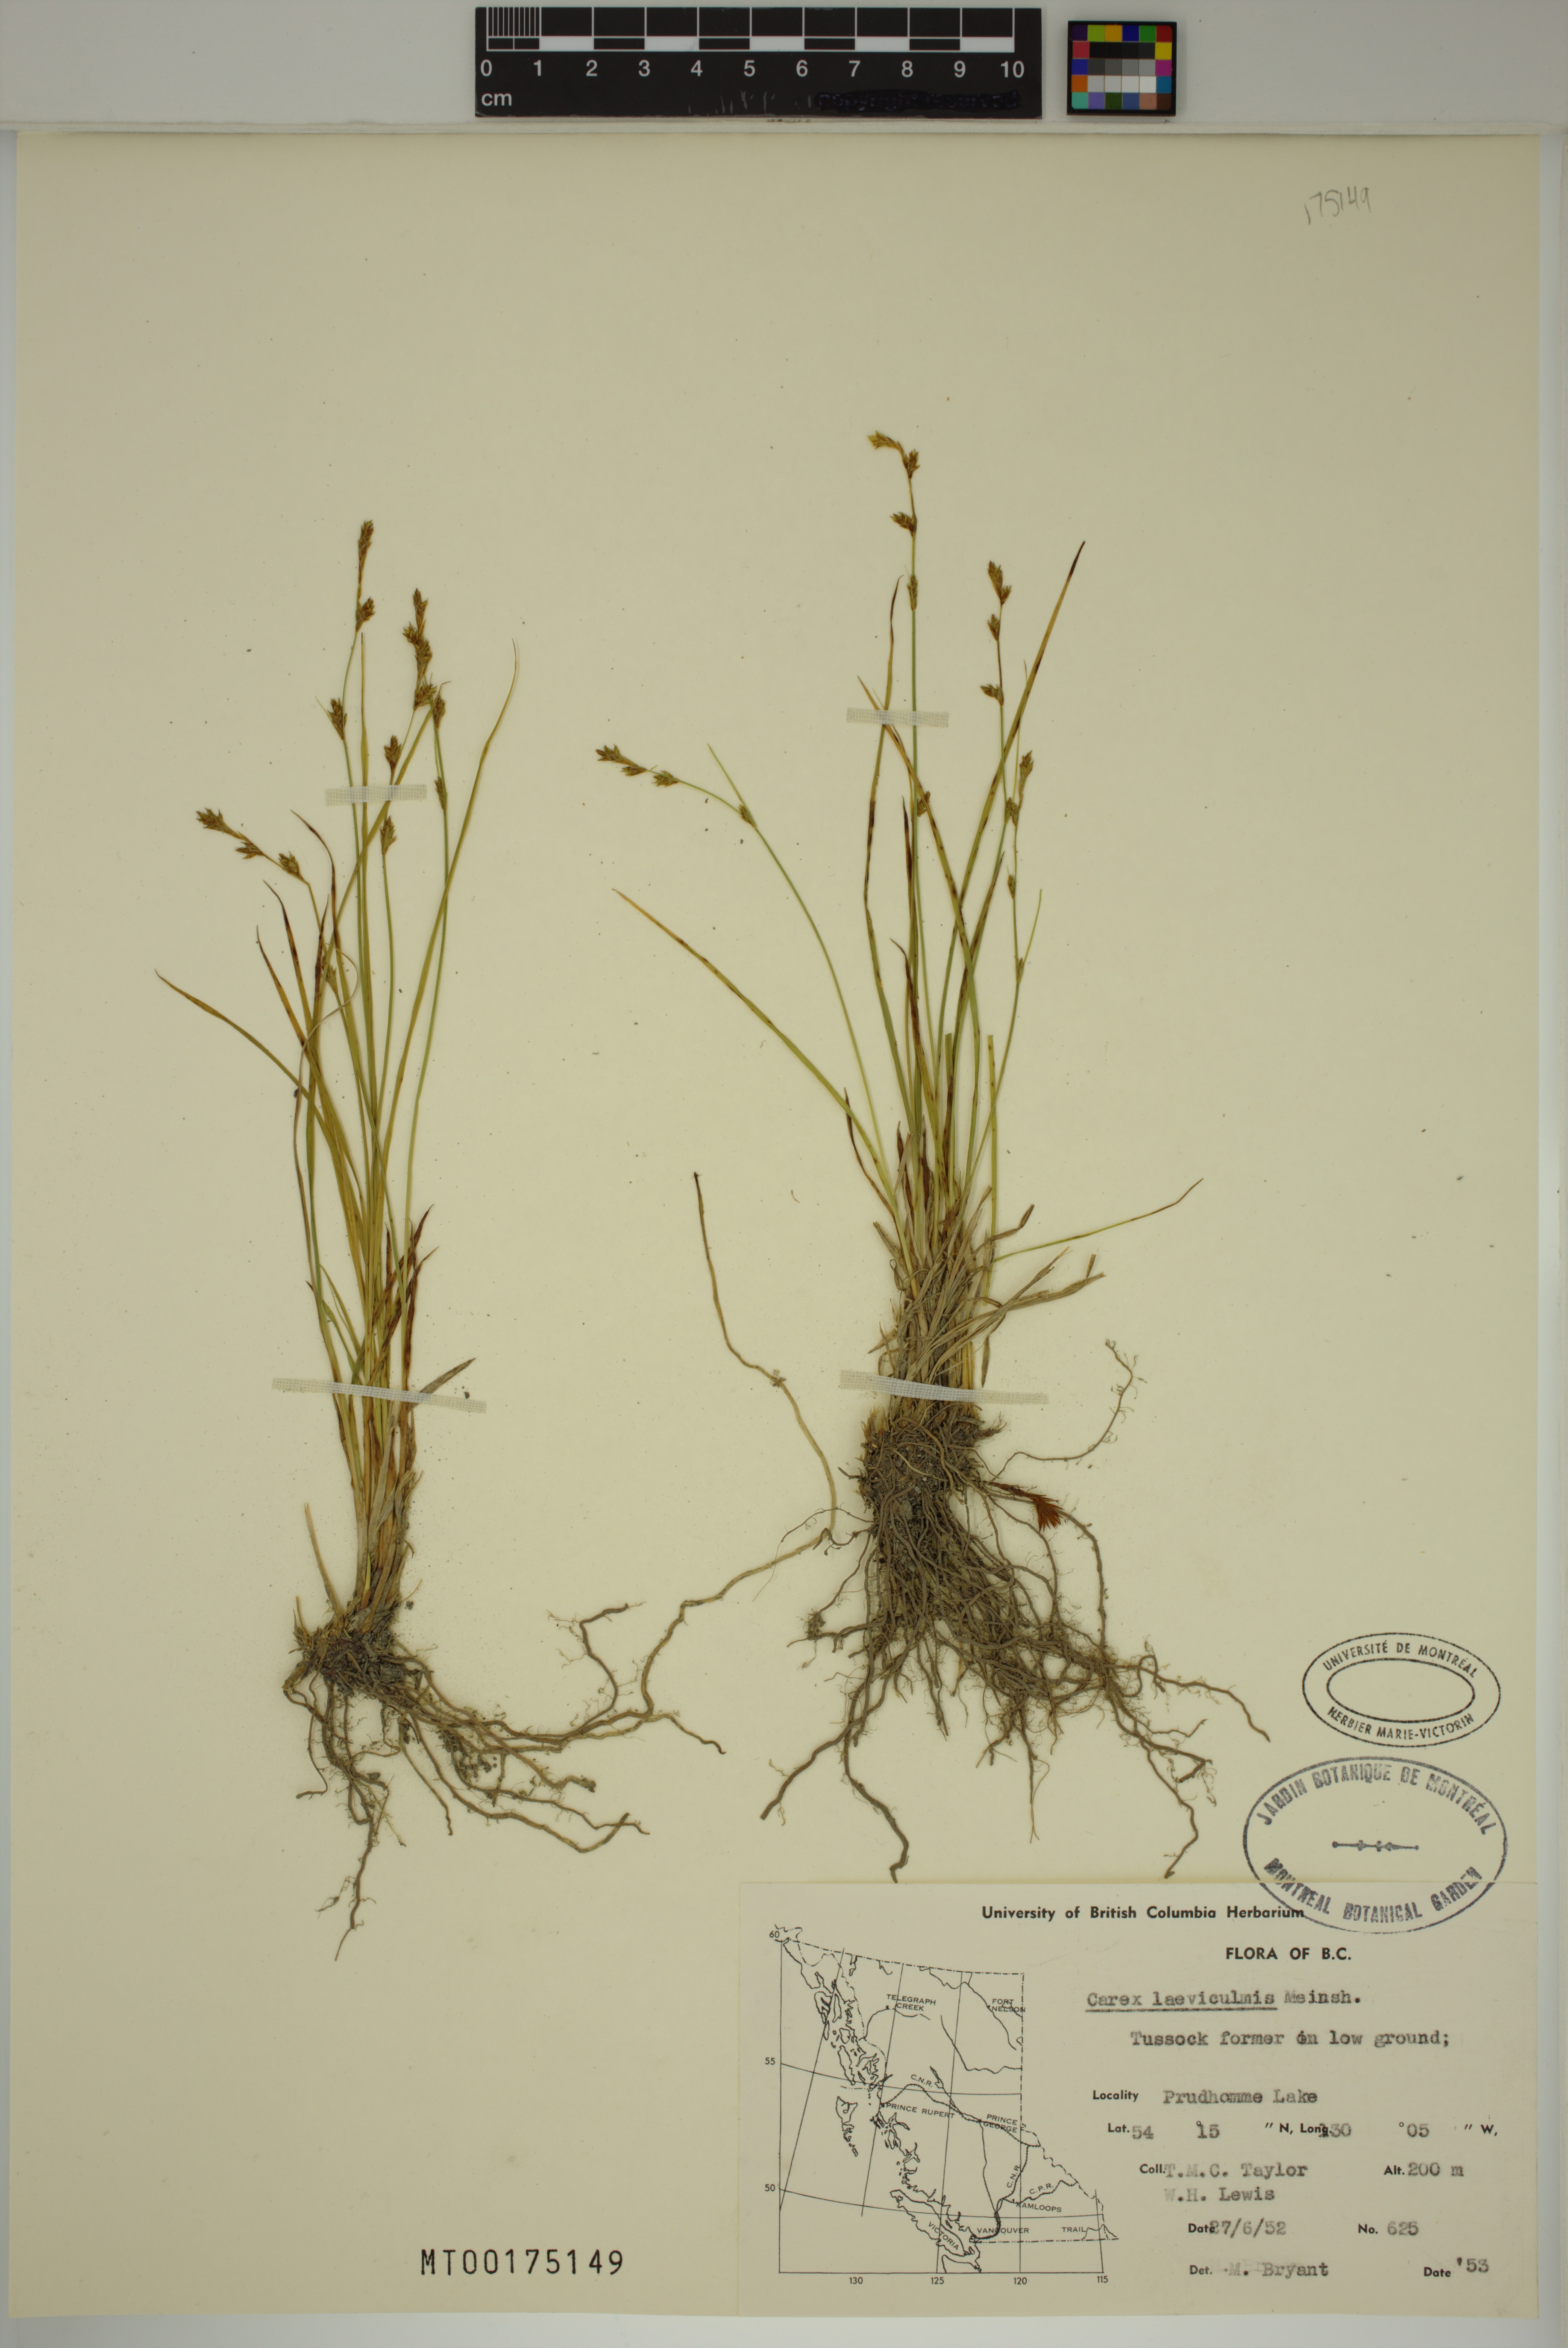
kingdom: Plantae
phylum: Tracheophyta
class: Liliopsida
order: Poales
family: Cyperaceae
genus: Carex
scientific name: Carex laeviculmis
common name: Smooth sedge
